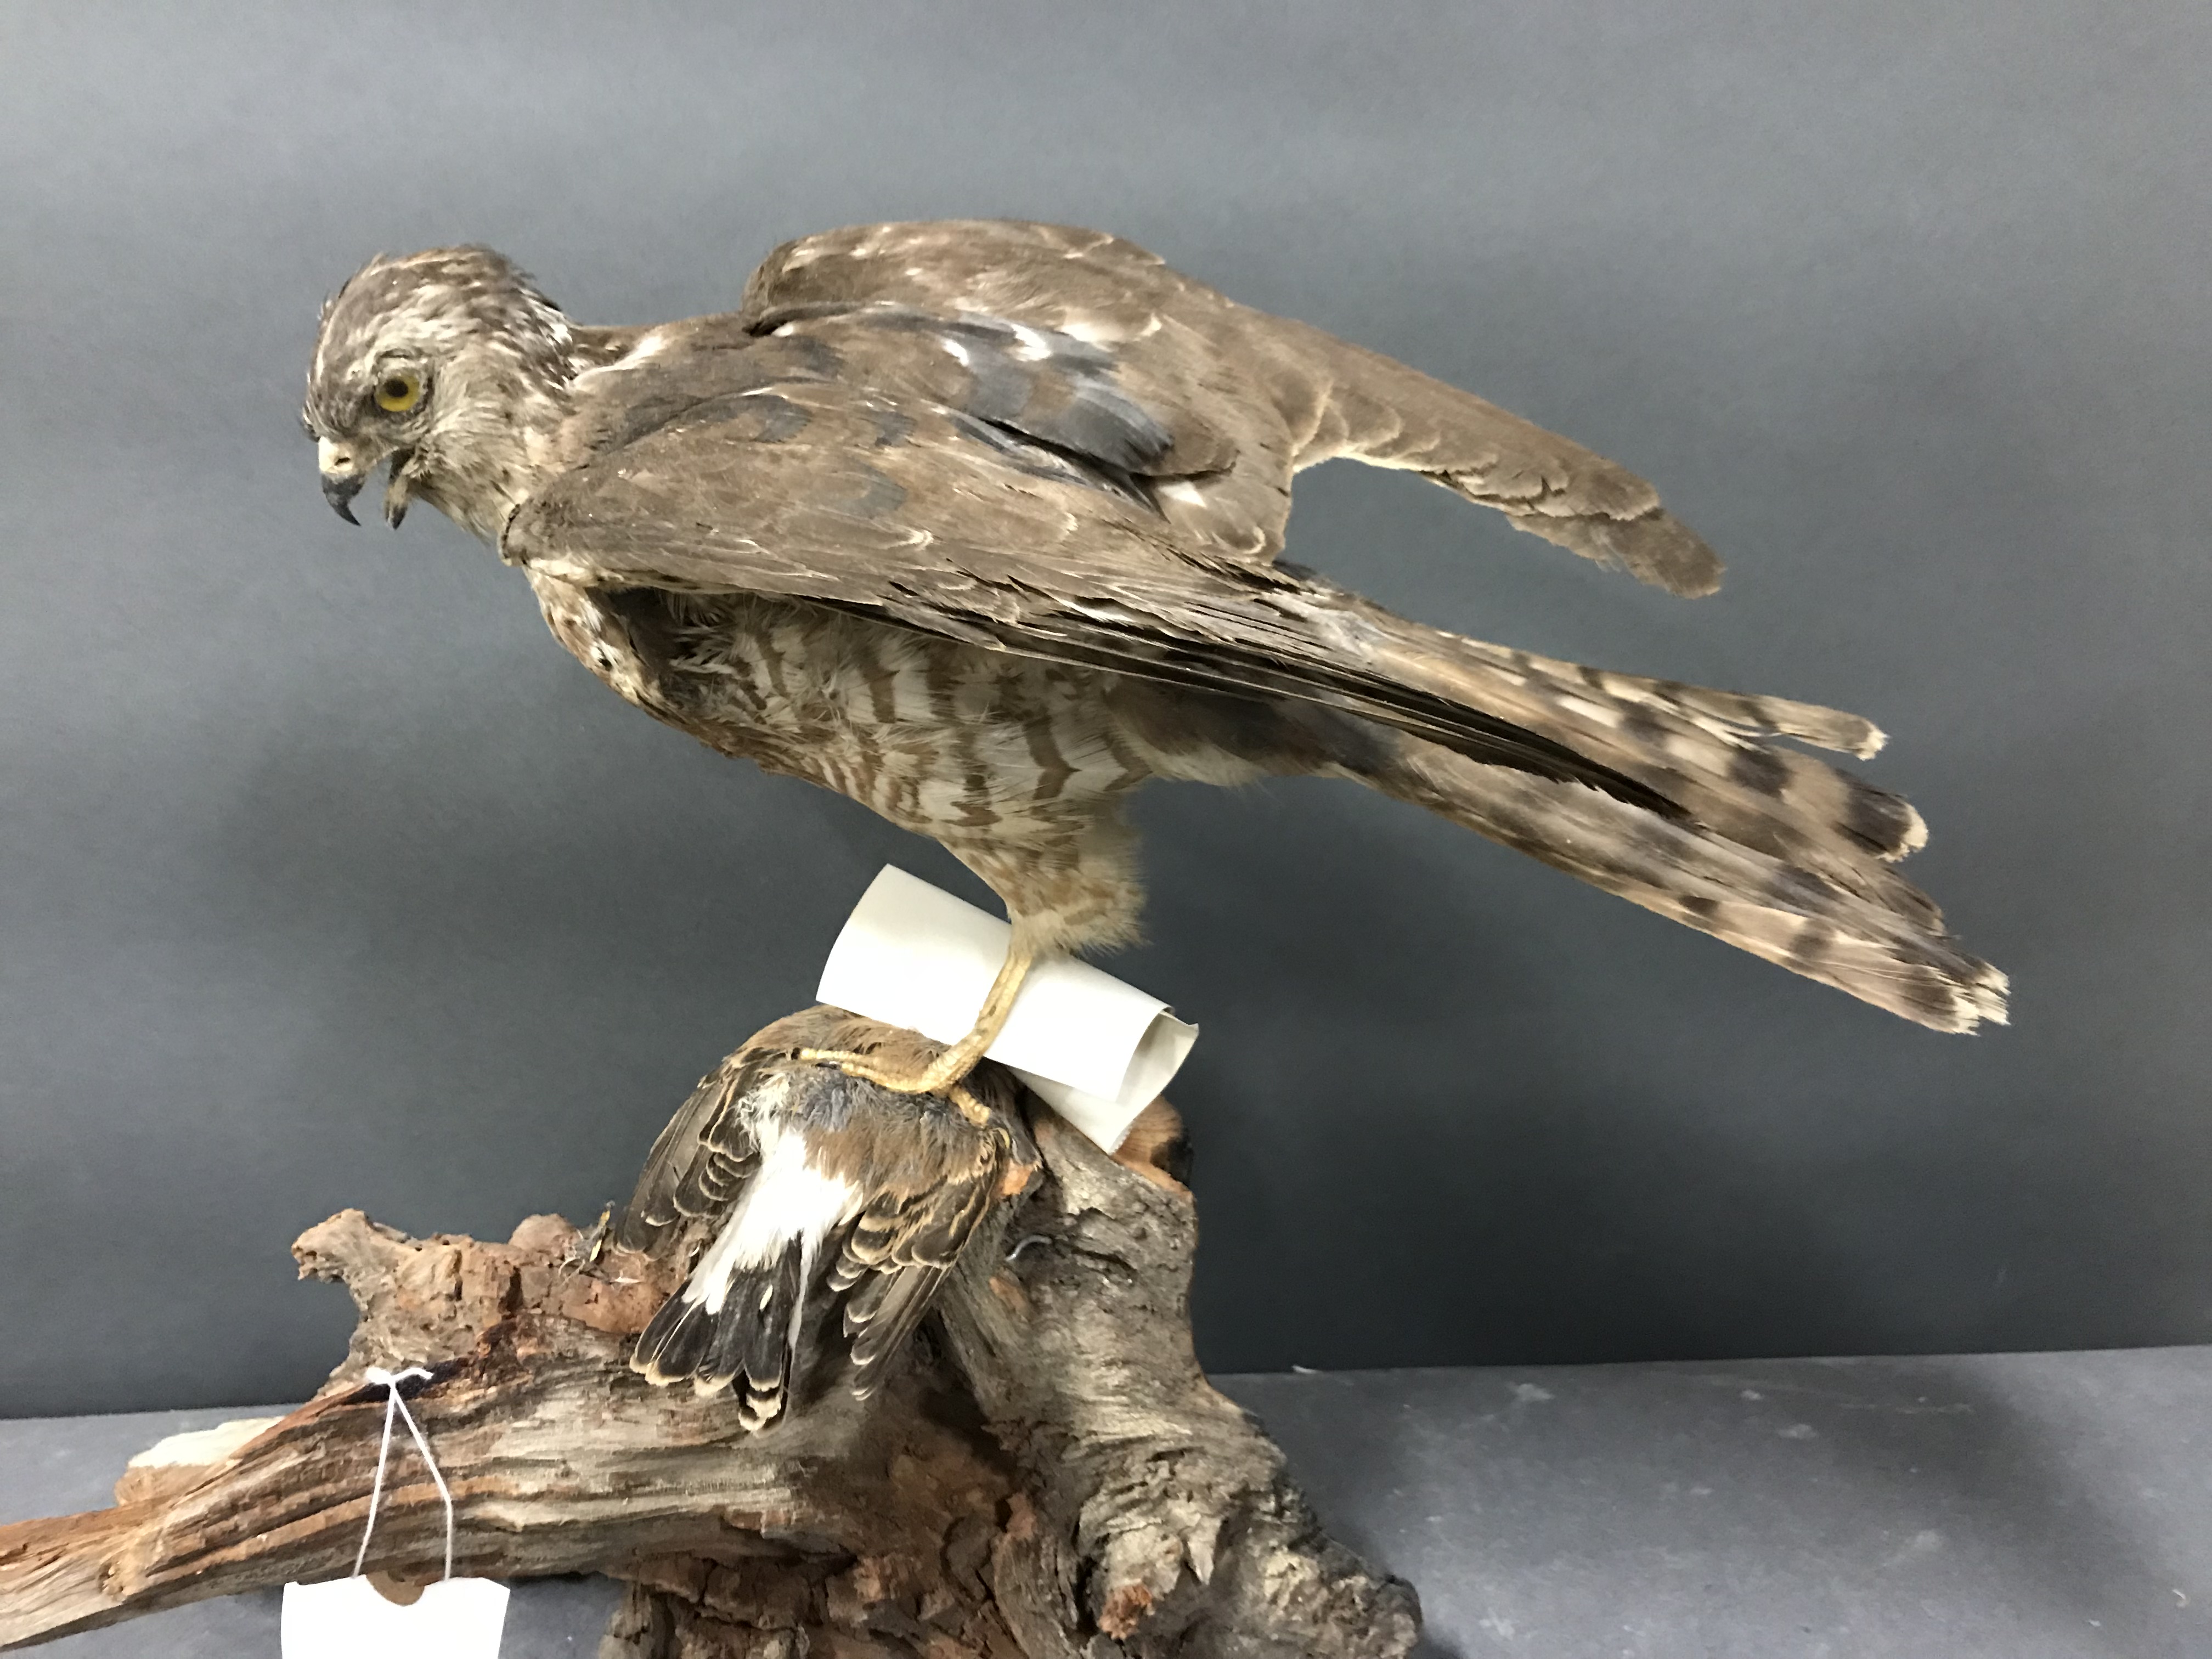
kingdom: Animalia
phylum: Chordata
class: Aves
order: Accipitriformes
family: Accipitridae
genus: Accipiter
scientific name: Accipiter brevipes
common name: Levant sparrowhawk
